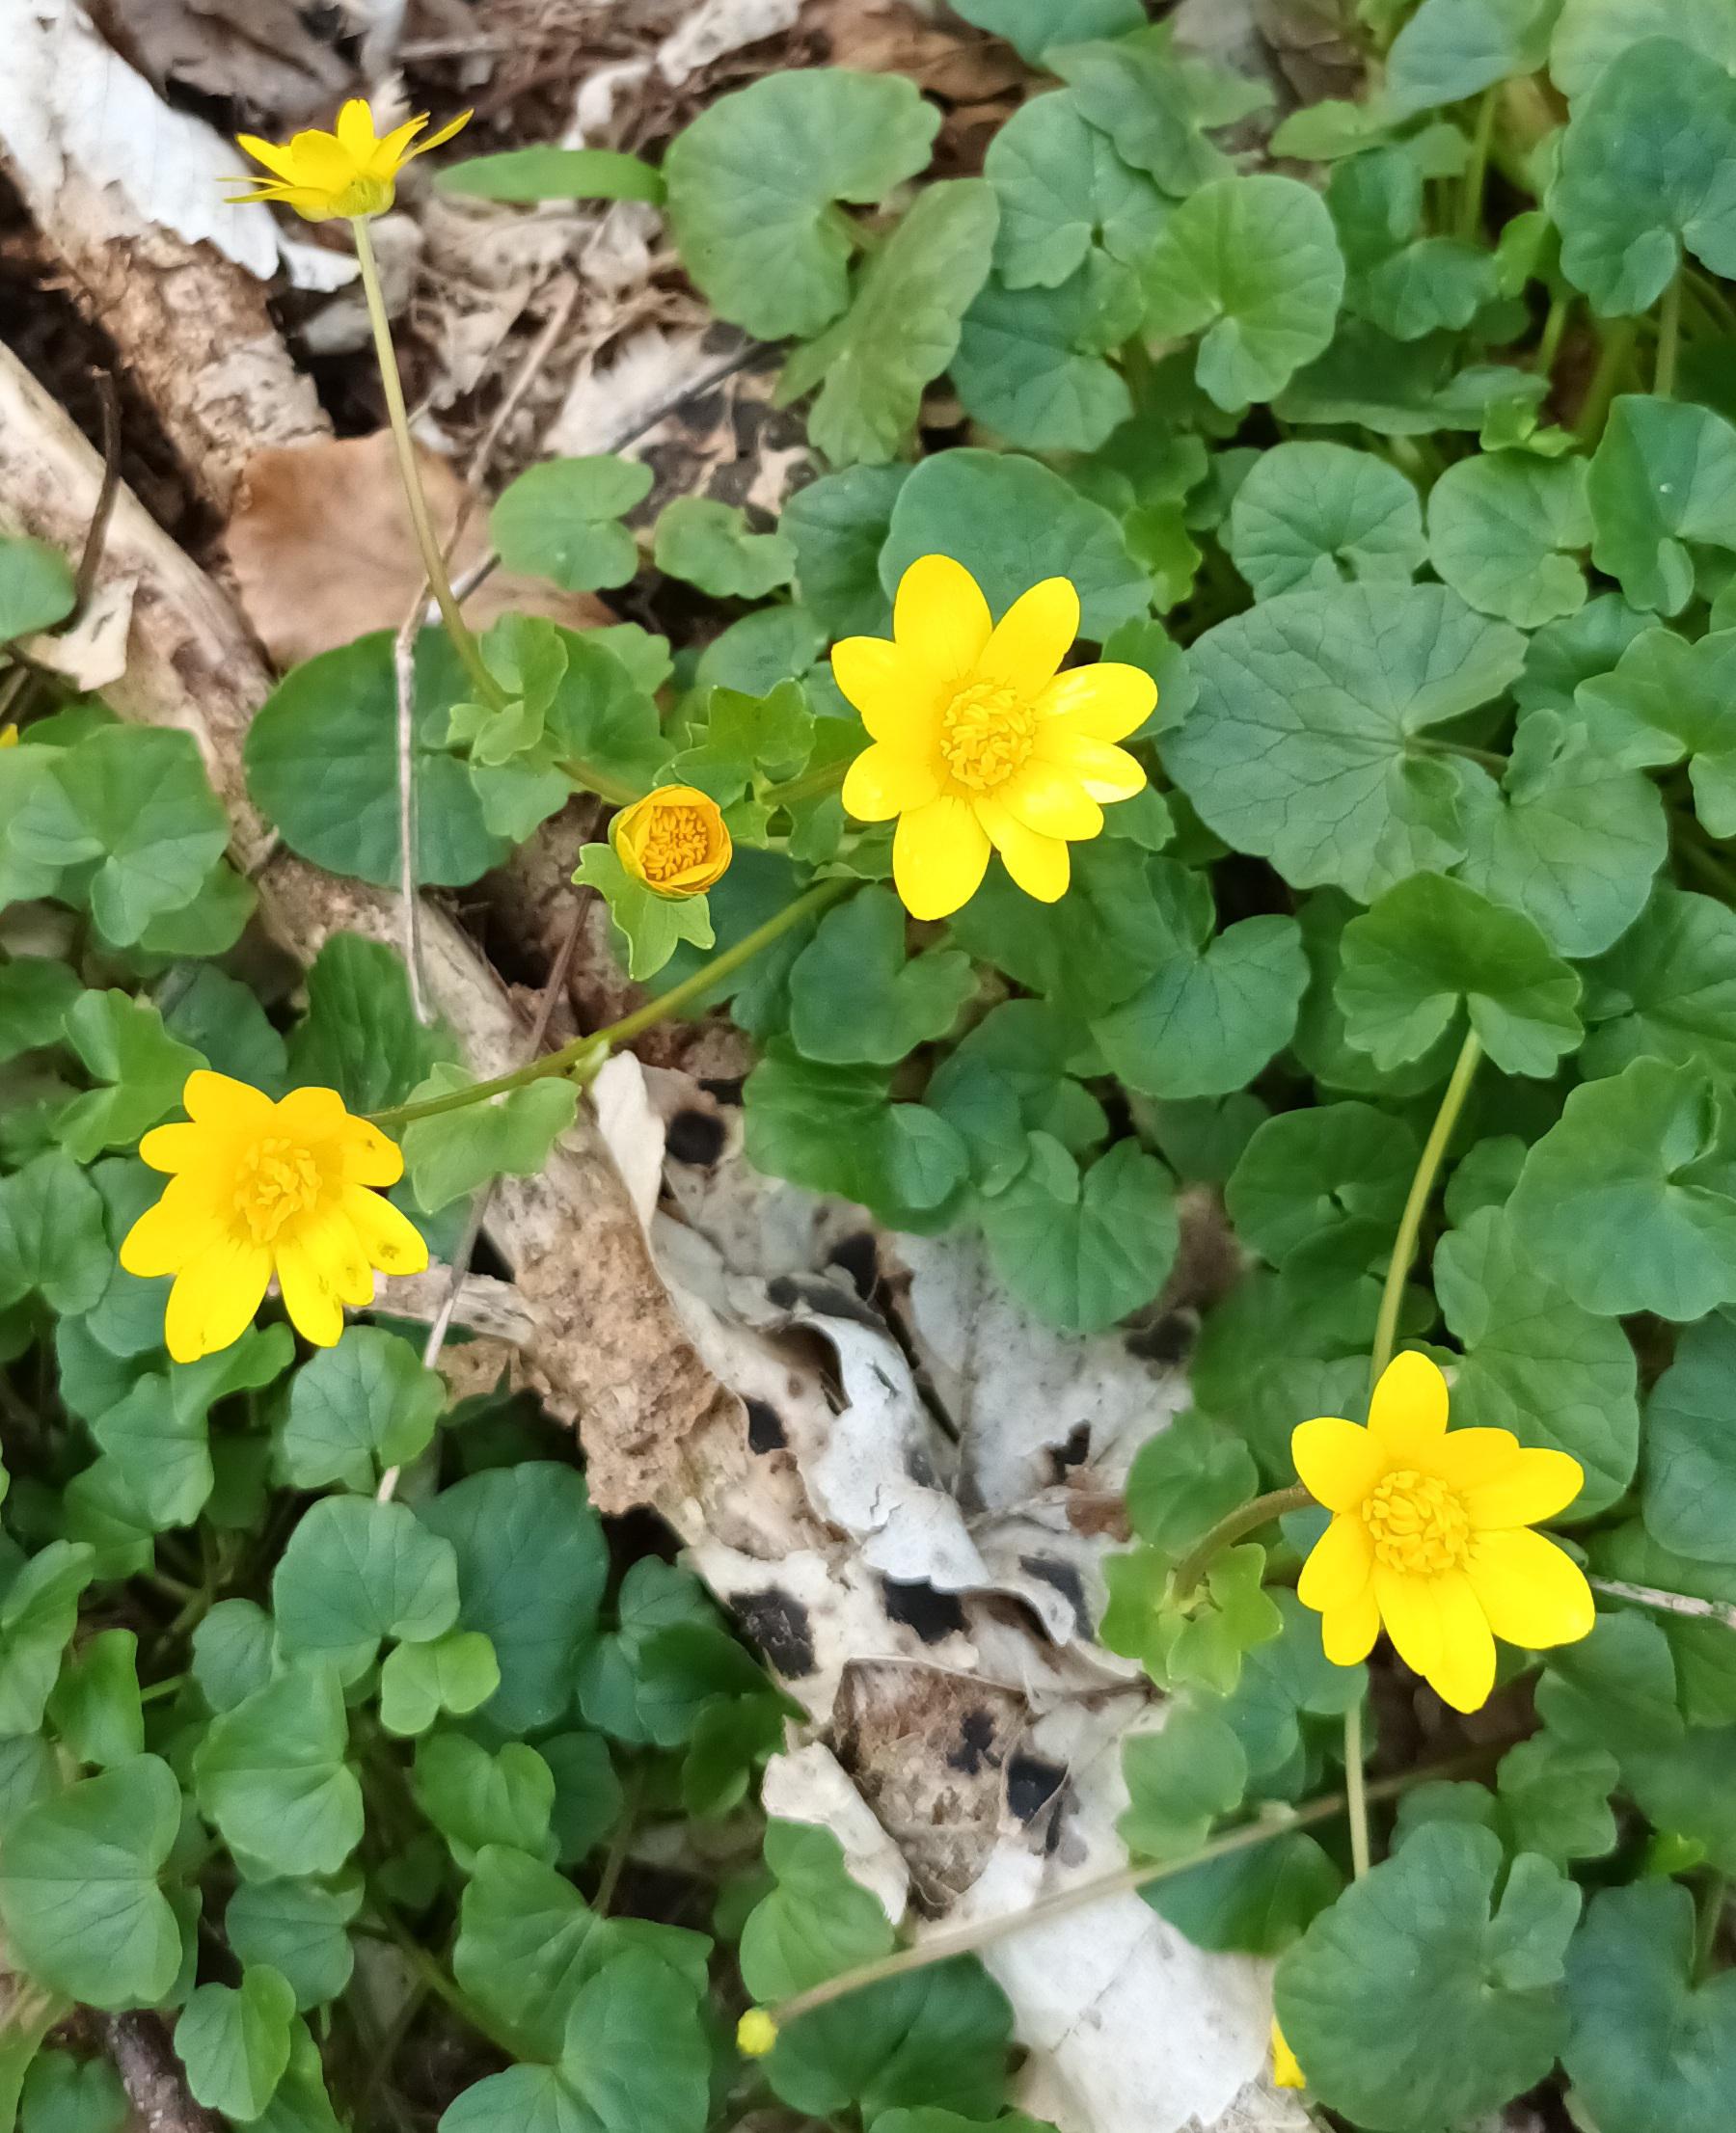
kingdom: Plantae
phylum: Tracheophyta
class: Magnoliopsida
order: Ranunculales
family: Ranunculaceae
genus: Ficaria
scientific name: Ficaria verna
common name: Vorterod
